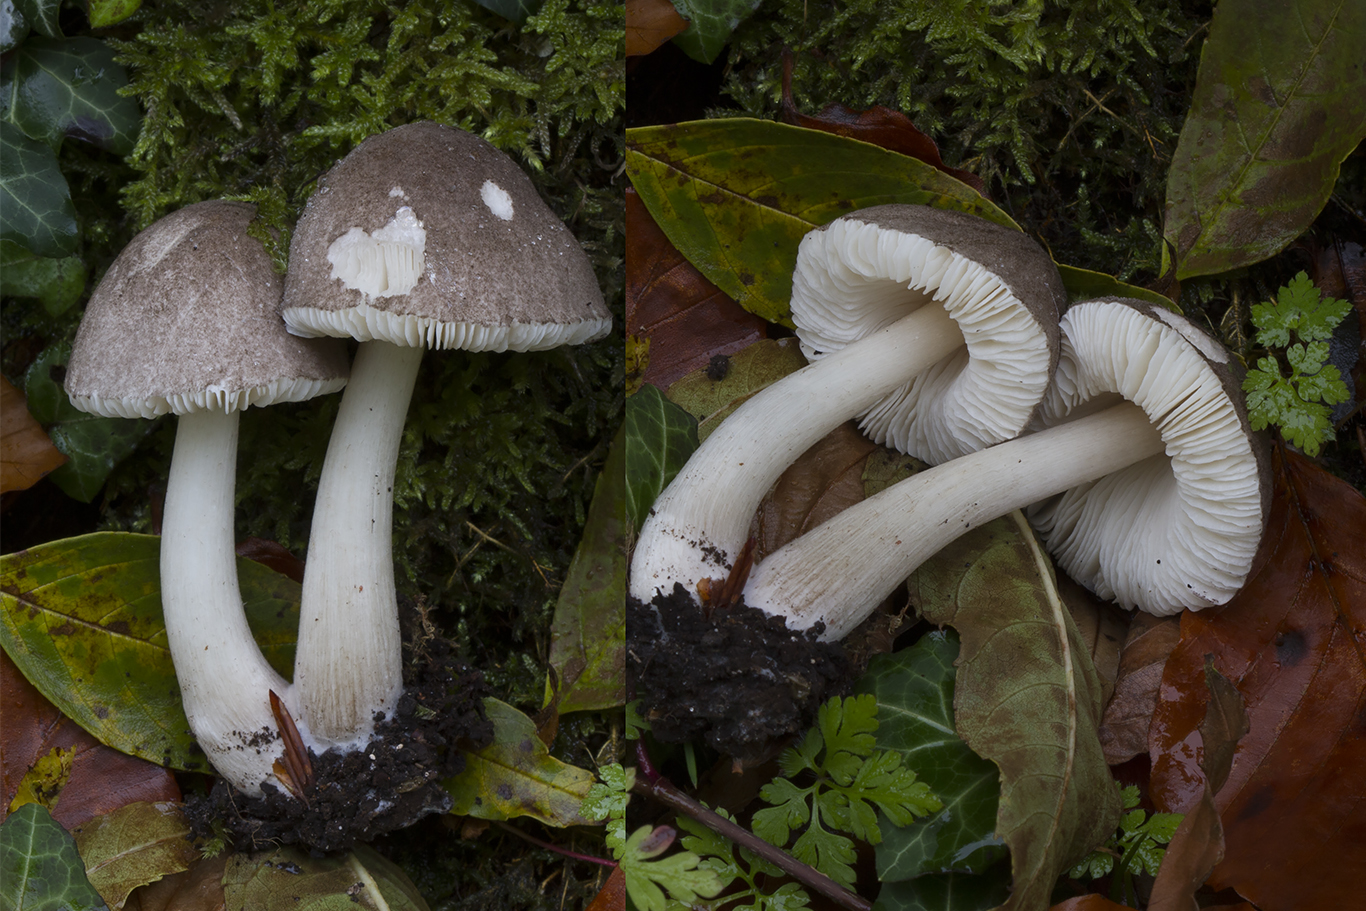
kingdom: Fungi
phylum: Basidiomycota
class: Agaricomycetes
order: Agaricales
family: Pluteaceae
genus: Pluteus
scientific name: Pluteus ephebeus
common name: Sooty shield
